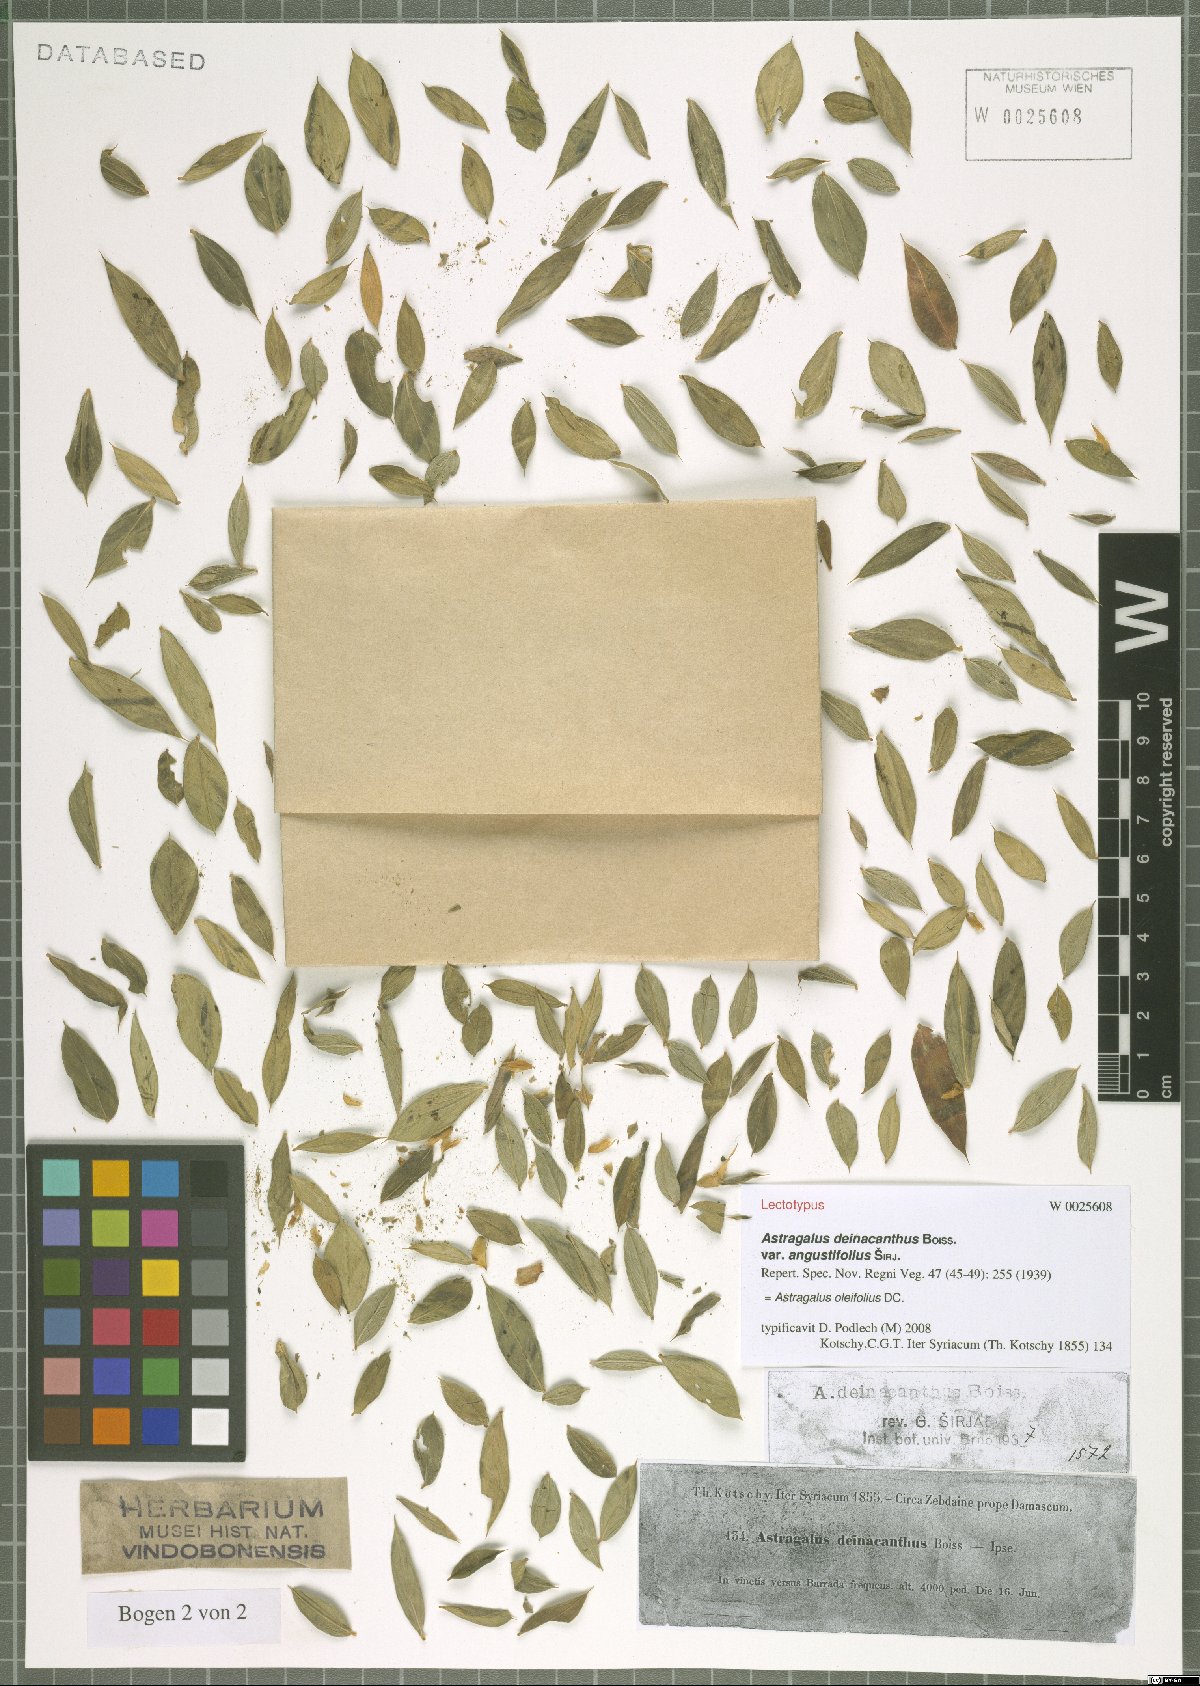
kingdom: Plantae
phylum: Tracheophyta
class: Magnoliopsida
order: Fabales
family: Fabaceae
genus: Astragalus
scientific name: Astragalus oleifolius
